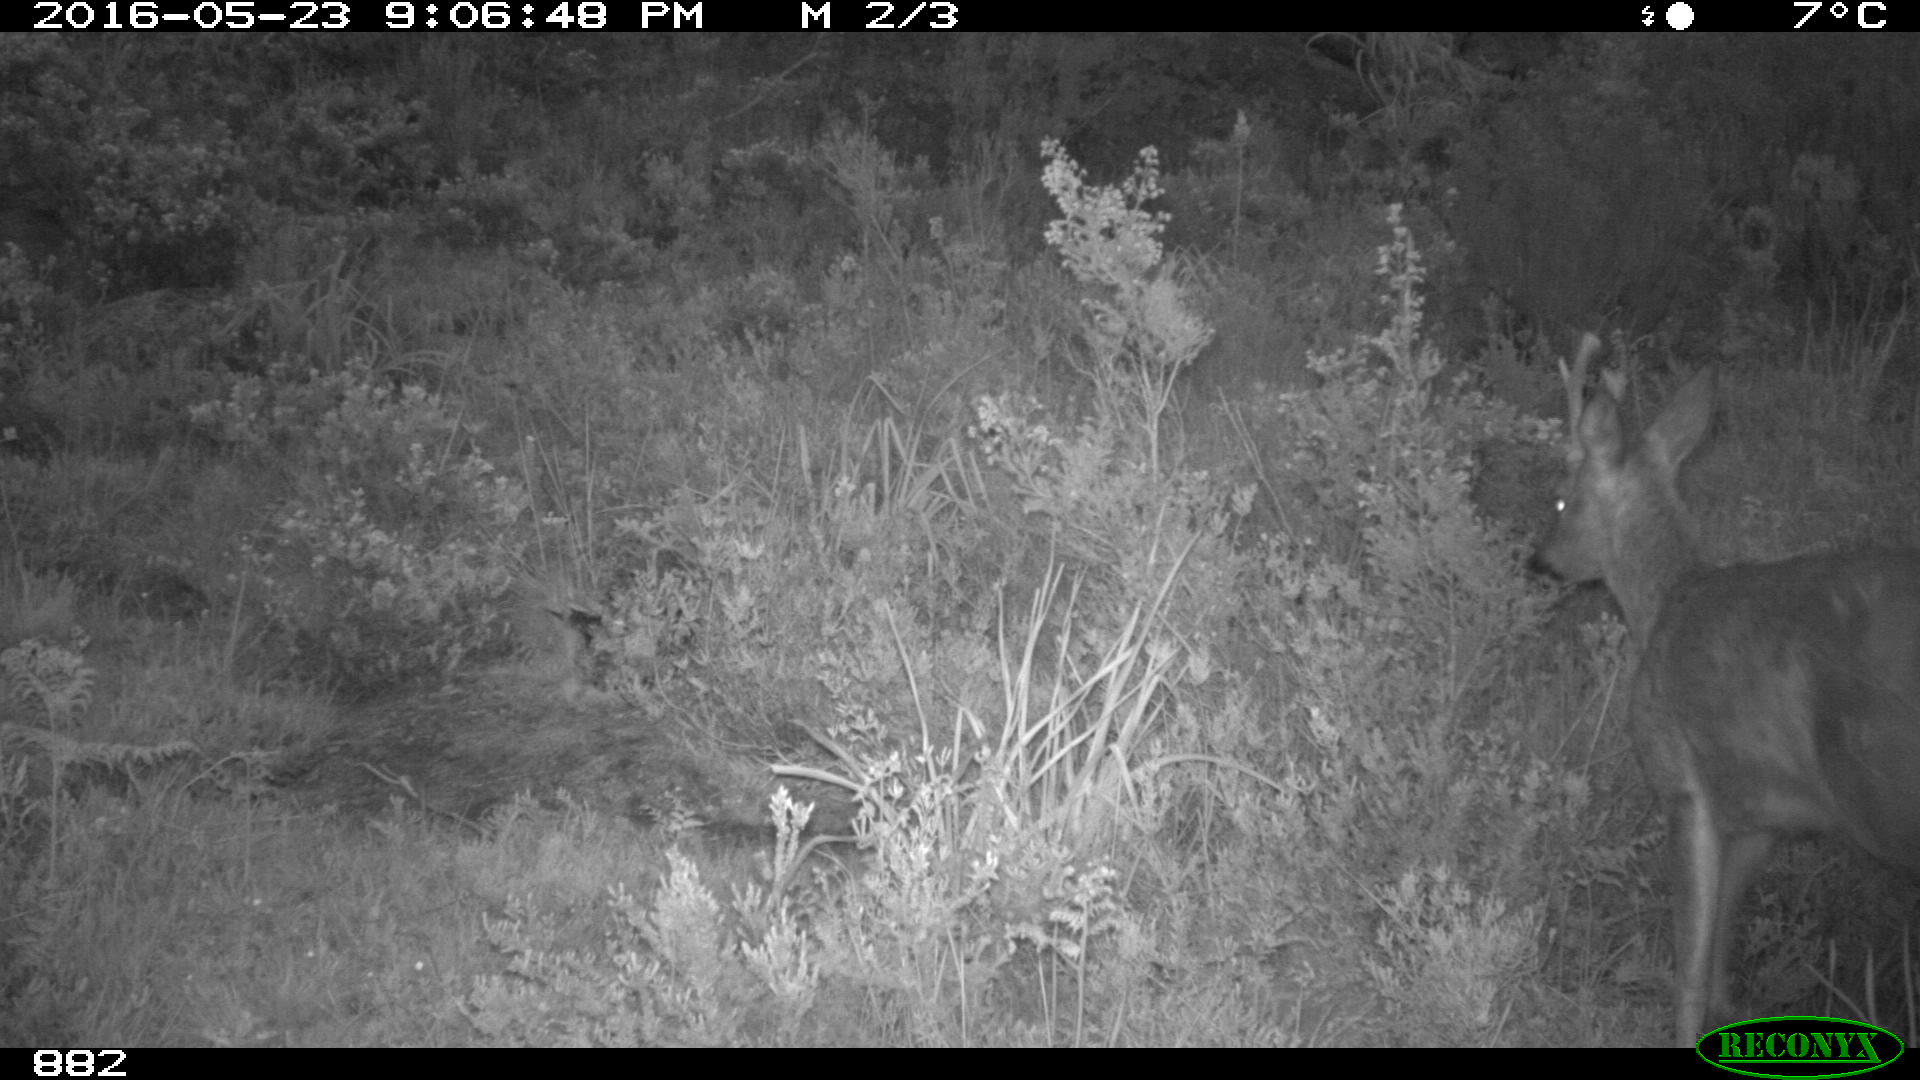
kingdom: Animalia
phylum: Chordata
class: Mammalia
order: Artiodactyla
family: Cervidae
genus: Capreolus
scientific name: Capreolus capreolus
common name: Western roe deer
